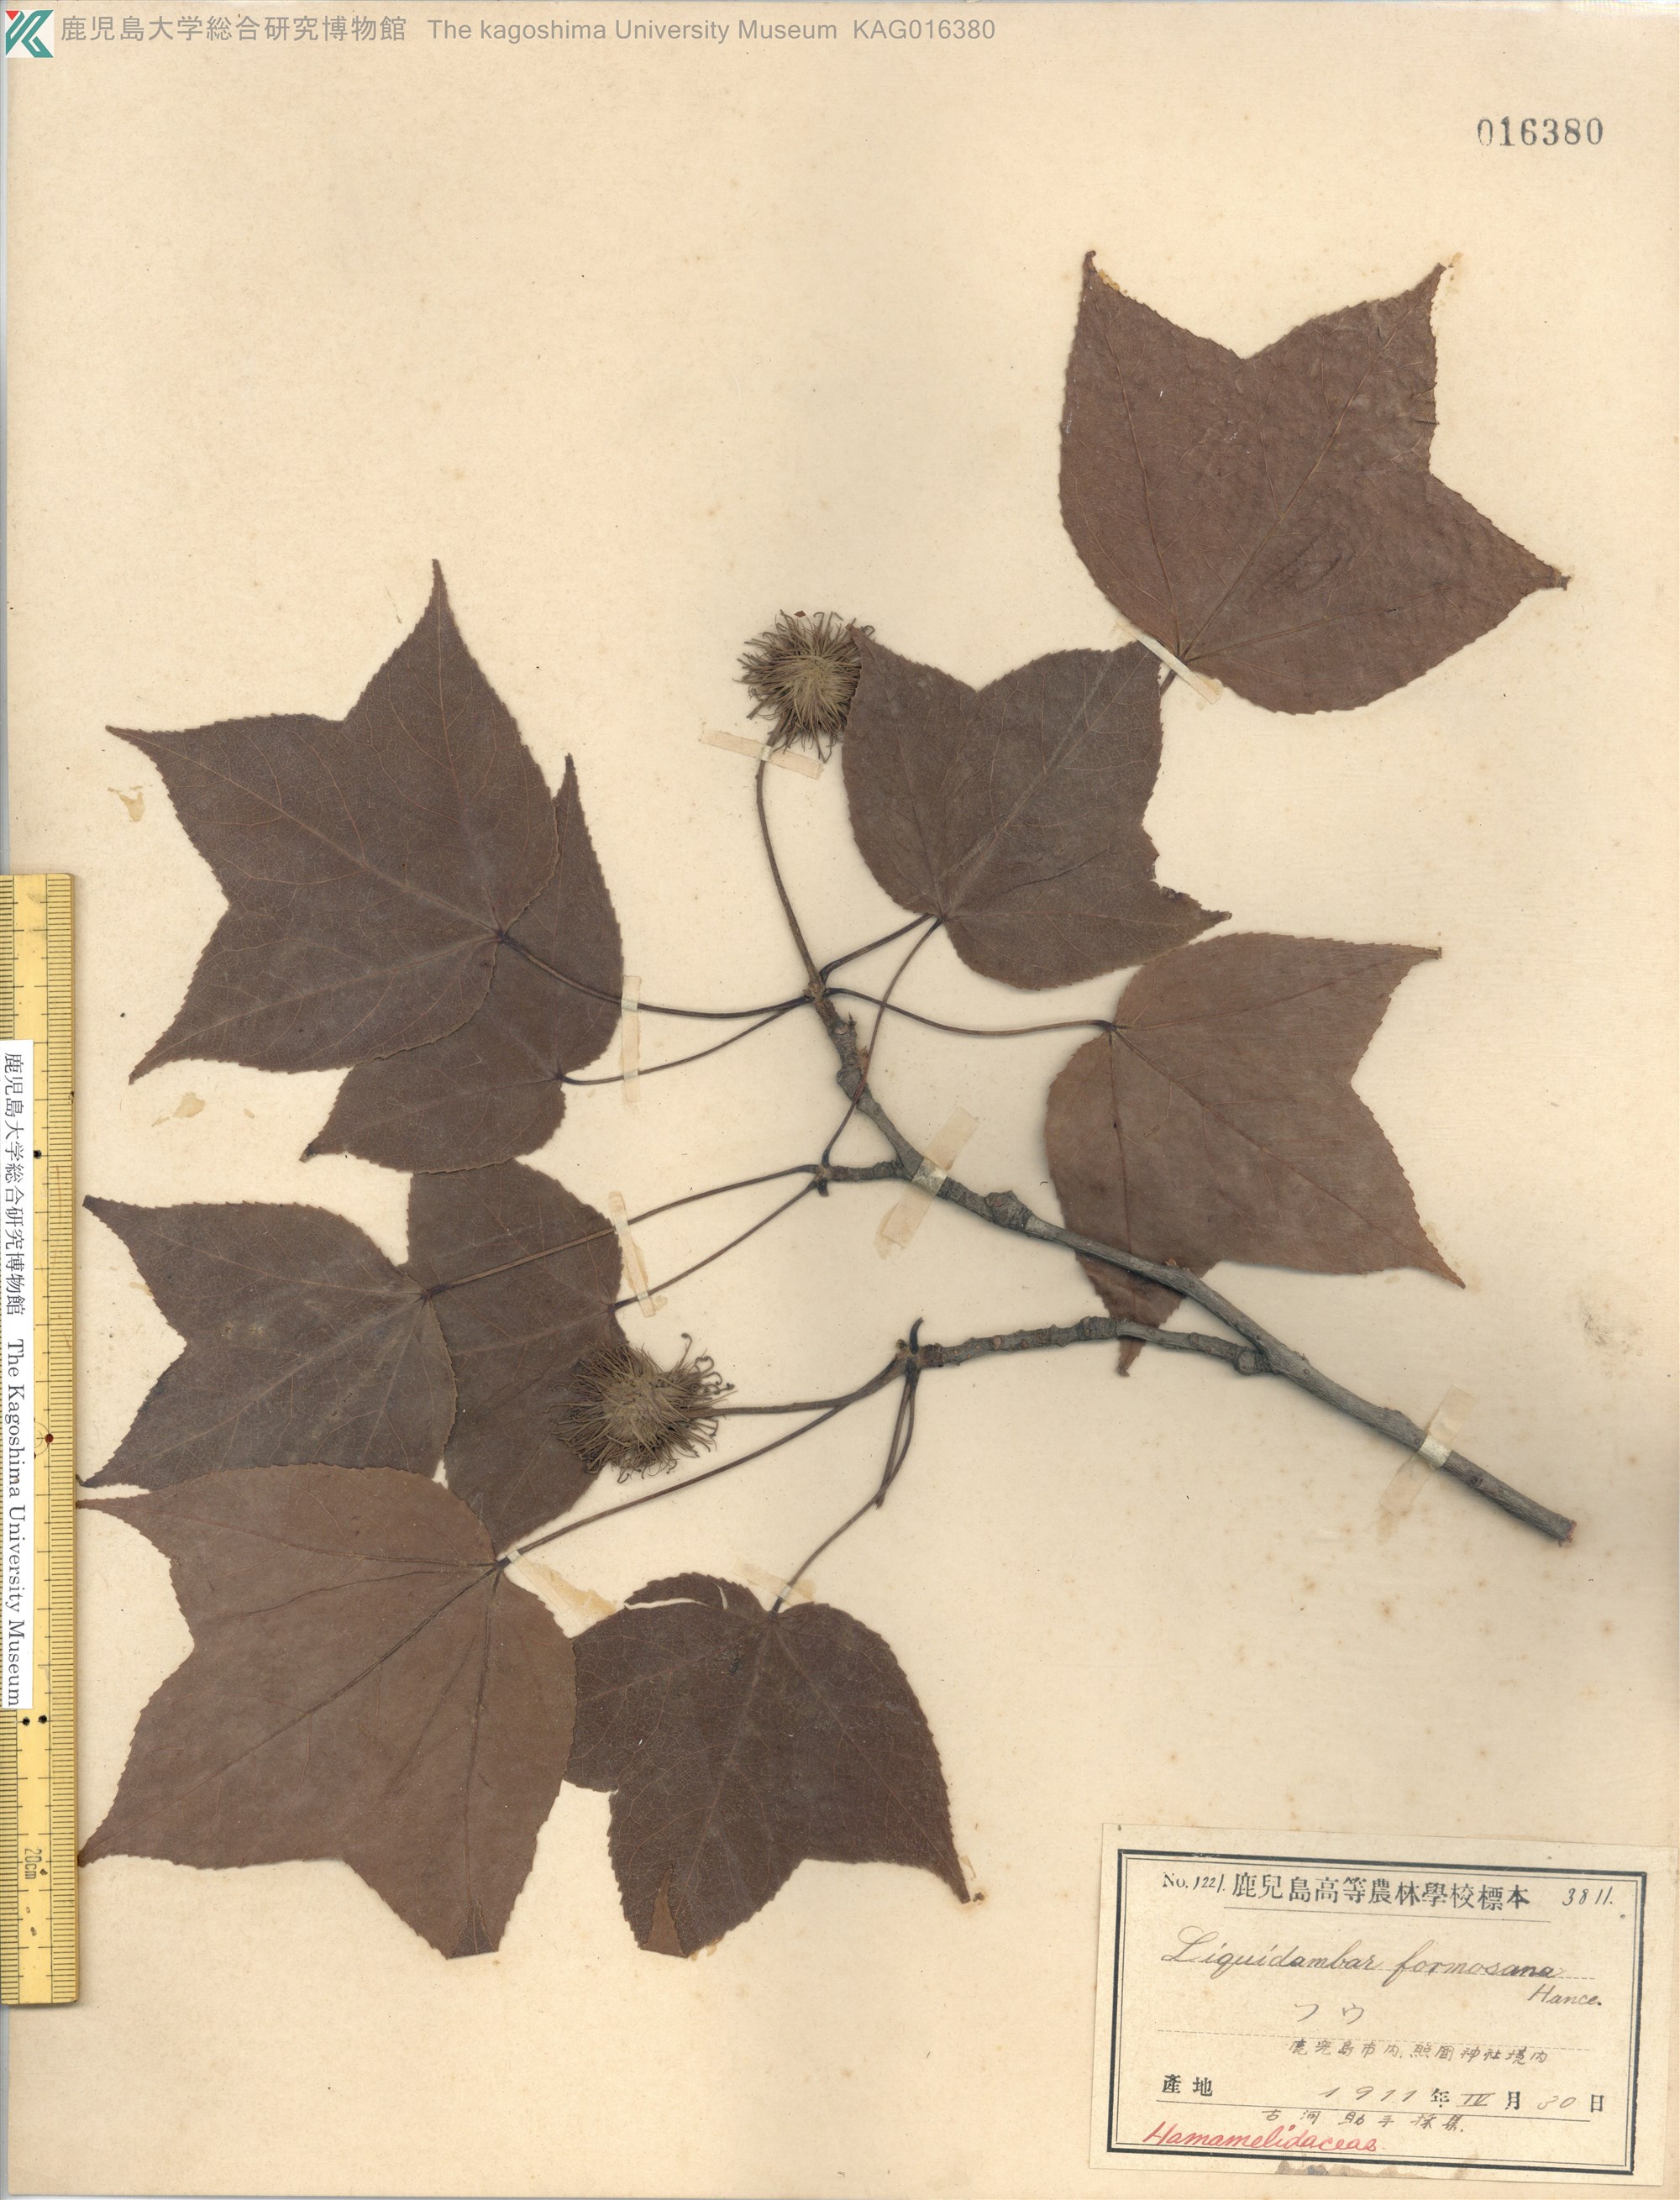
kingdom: Plantae
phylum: Tracheophyta
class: Magnoliopsida
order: Saxifragales
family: Altingiaceae
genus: Liquidambar
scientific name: Liquidambar formosana
